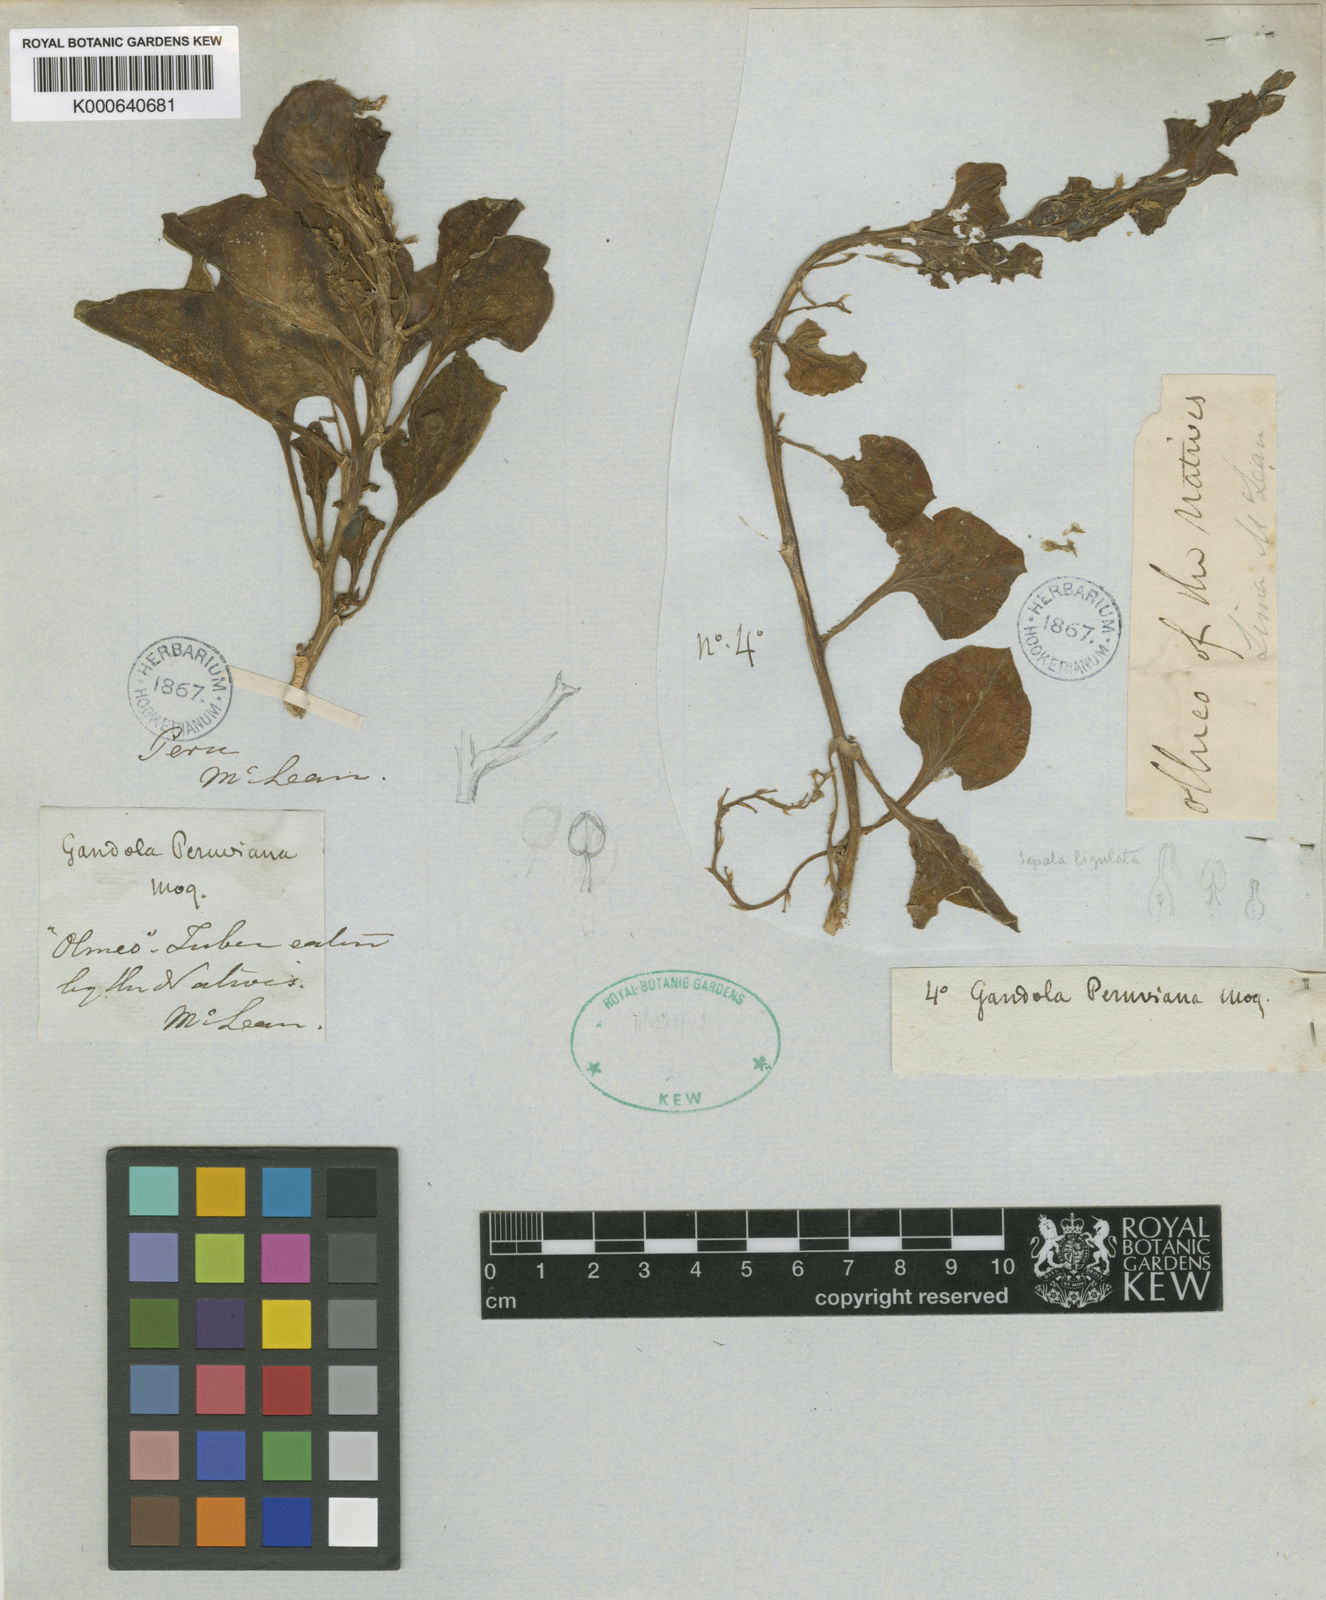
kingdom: Plantae
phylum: Tracheophyta
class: Magnoliopsida
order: Caryophyllales
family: Basellaceae
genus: Ullucus
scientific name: Ullucus tuberosus
